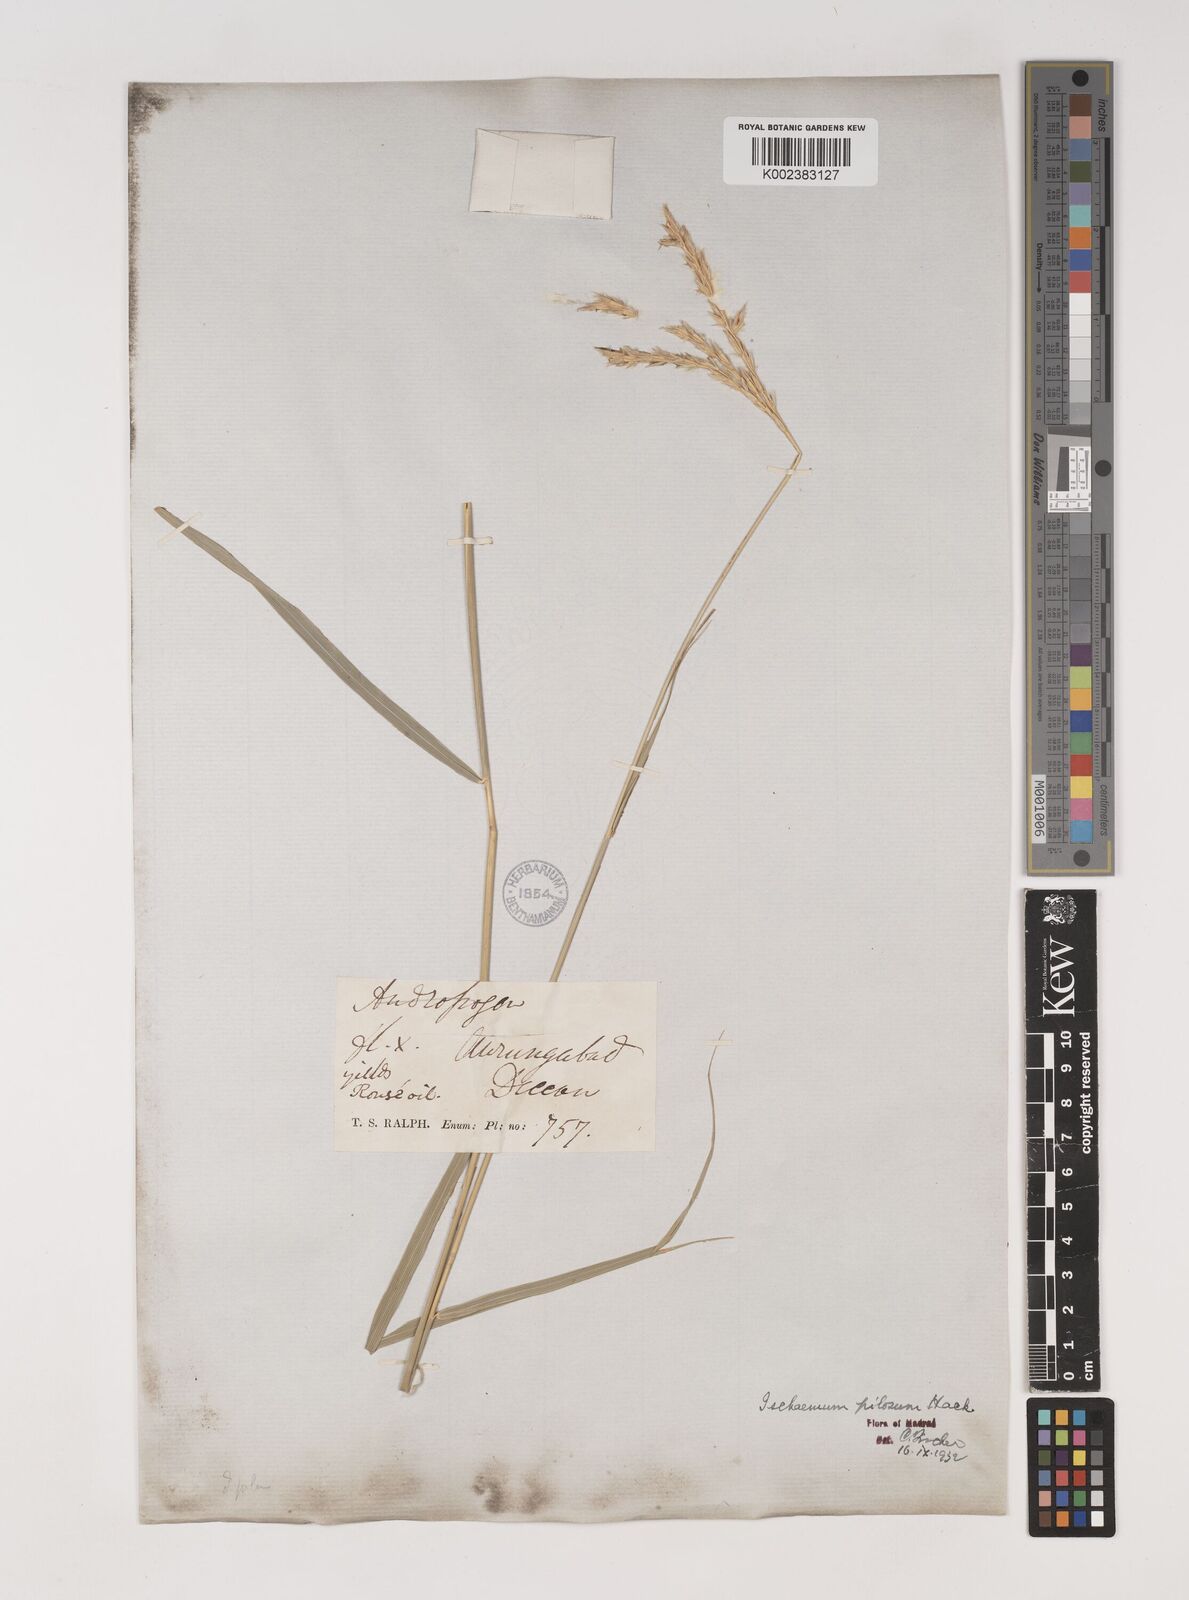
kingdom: Plantae
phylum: Tracheophyta
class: Liliopsida
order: Poales
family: Poaceae
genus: Ischaemum
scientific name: Ischaemum afrum
